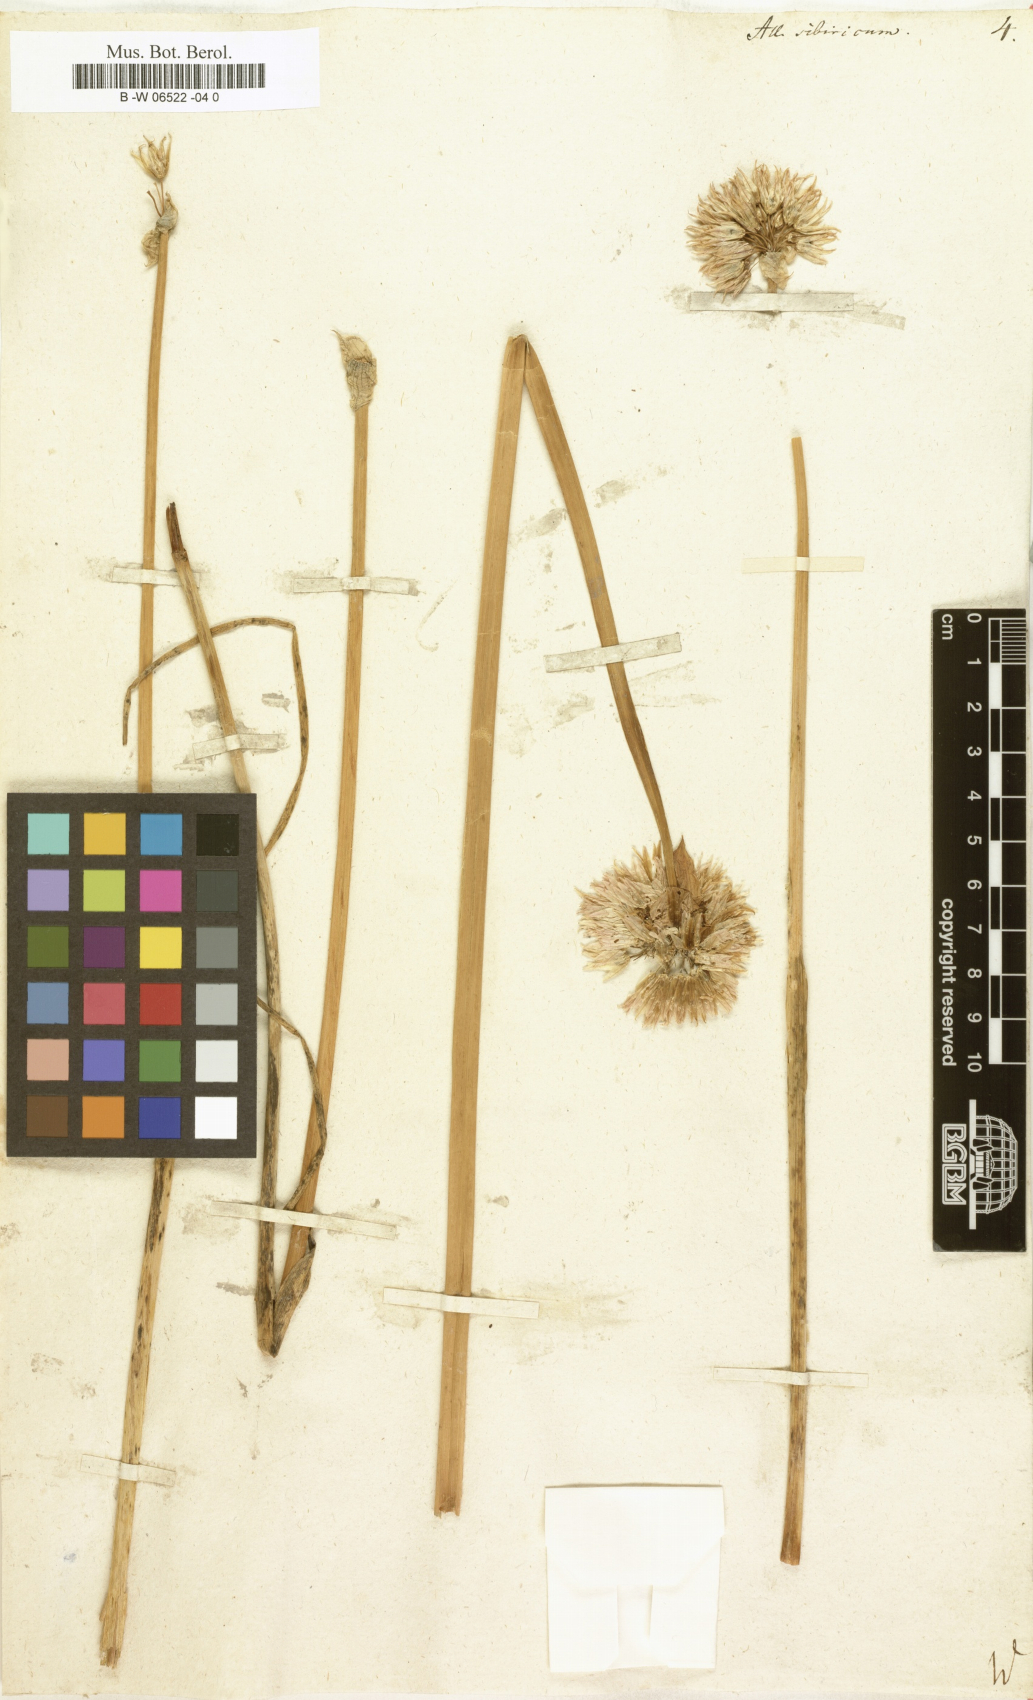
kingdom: Plantae
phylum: Tracheophyta
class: Liliopsida
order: Asparagales
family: Amaryllidaceae
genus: Allium
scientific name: Allium schoenoprasum
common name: Chives
